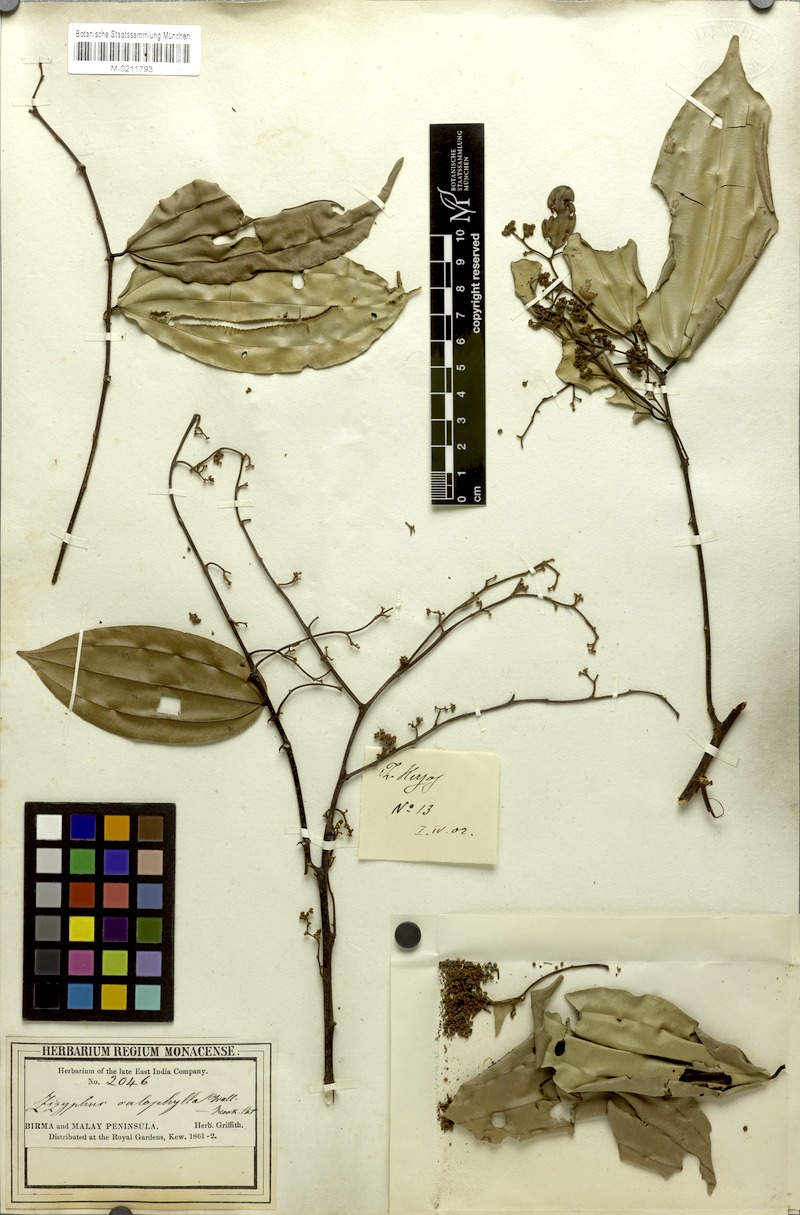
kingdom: Plantae
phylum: Tracheophyta
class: Magnoliopsida
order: Rosales
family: Rhamnaceae
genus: Ziziphus
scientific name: Ziziphus calophylla
